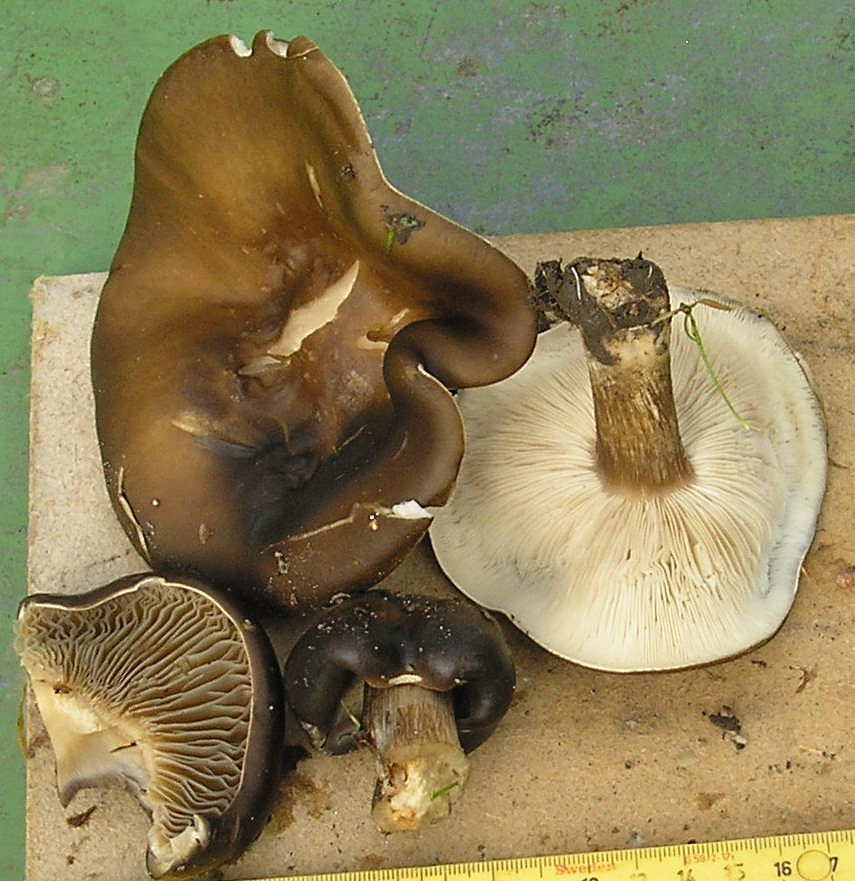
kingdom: Fungi
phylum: Basidiomycota
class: Agaricomycetes
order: Agaricales
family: Tricholomataceae
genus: Melanoleuca
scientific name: Melanoleuca
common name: munkehat
